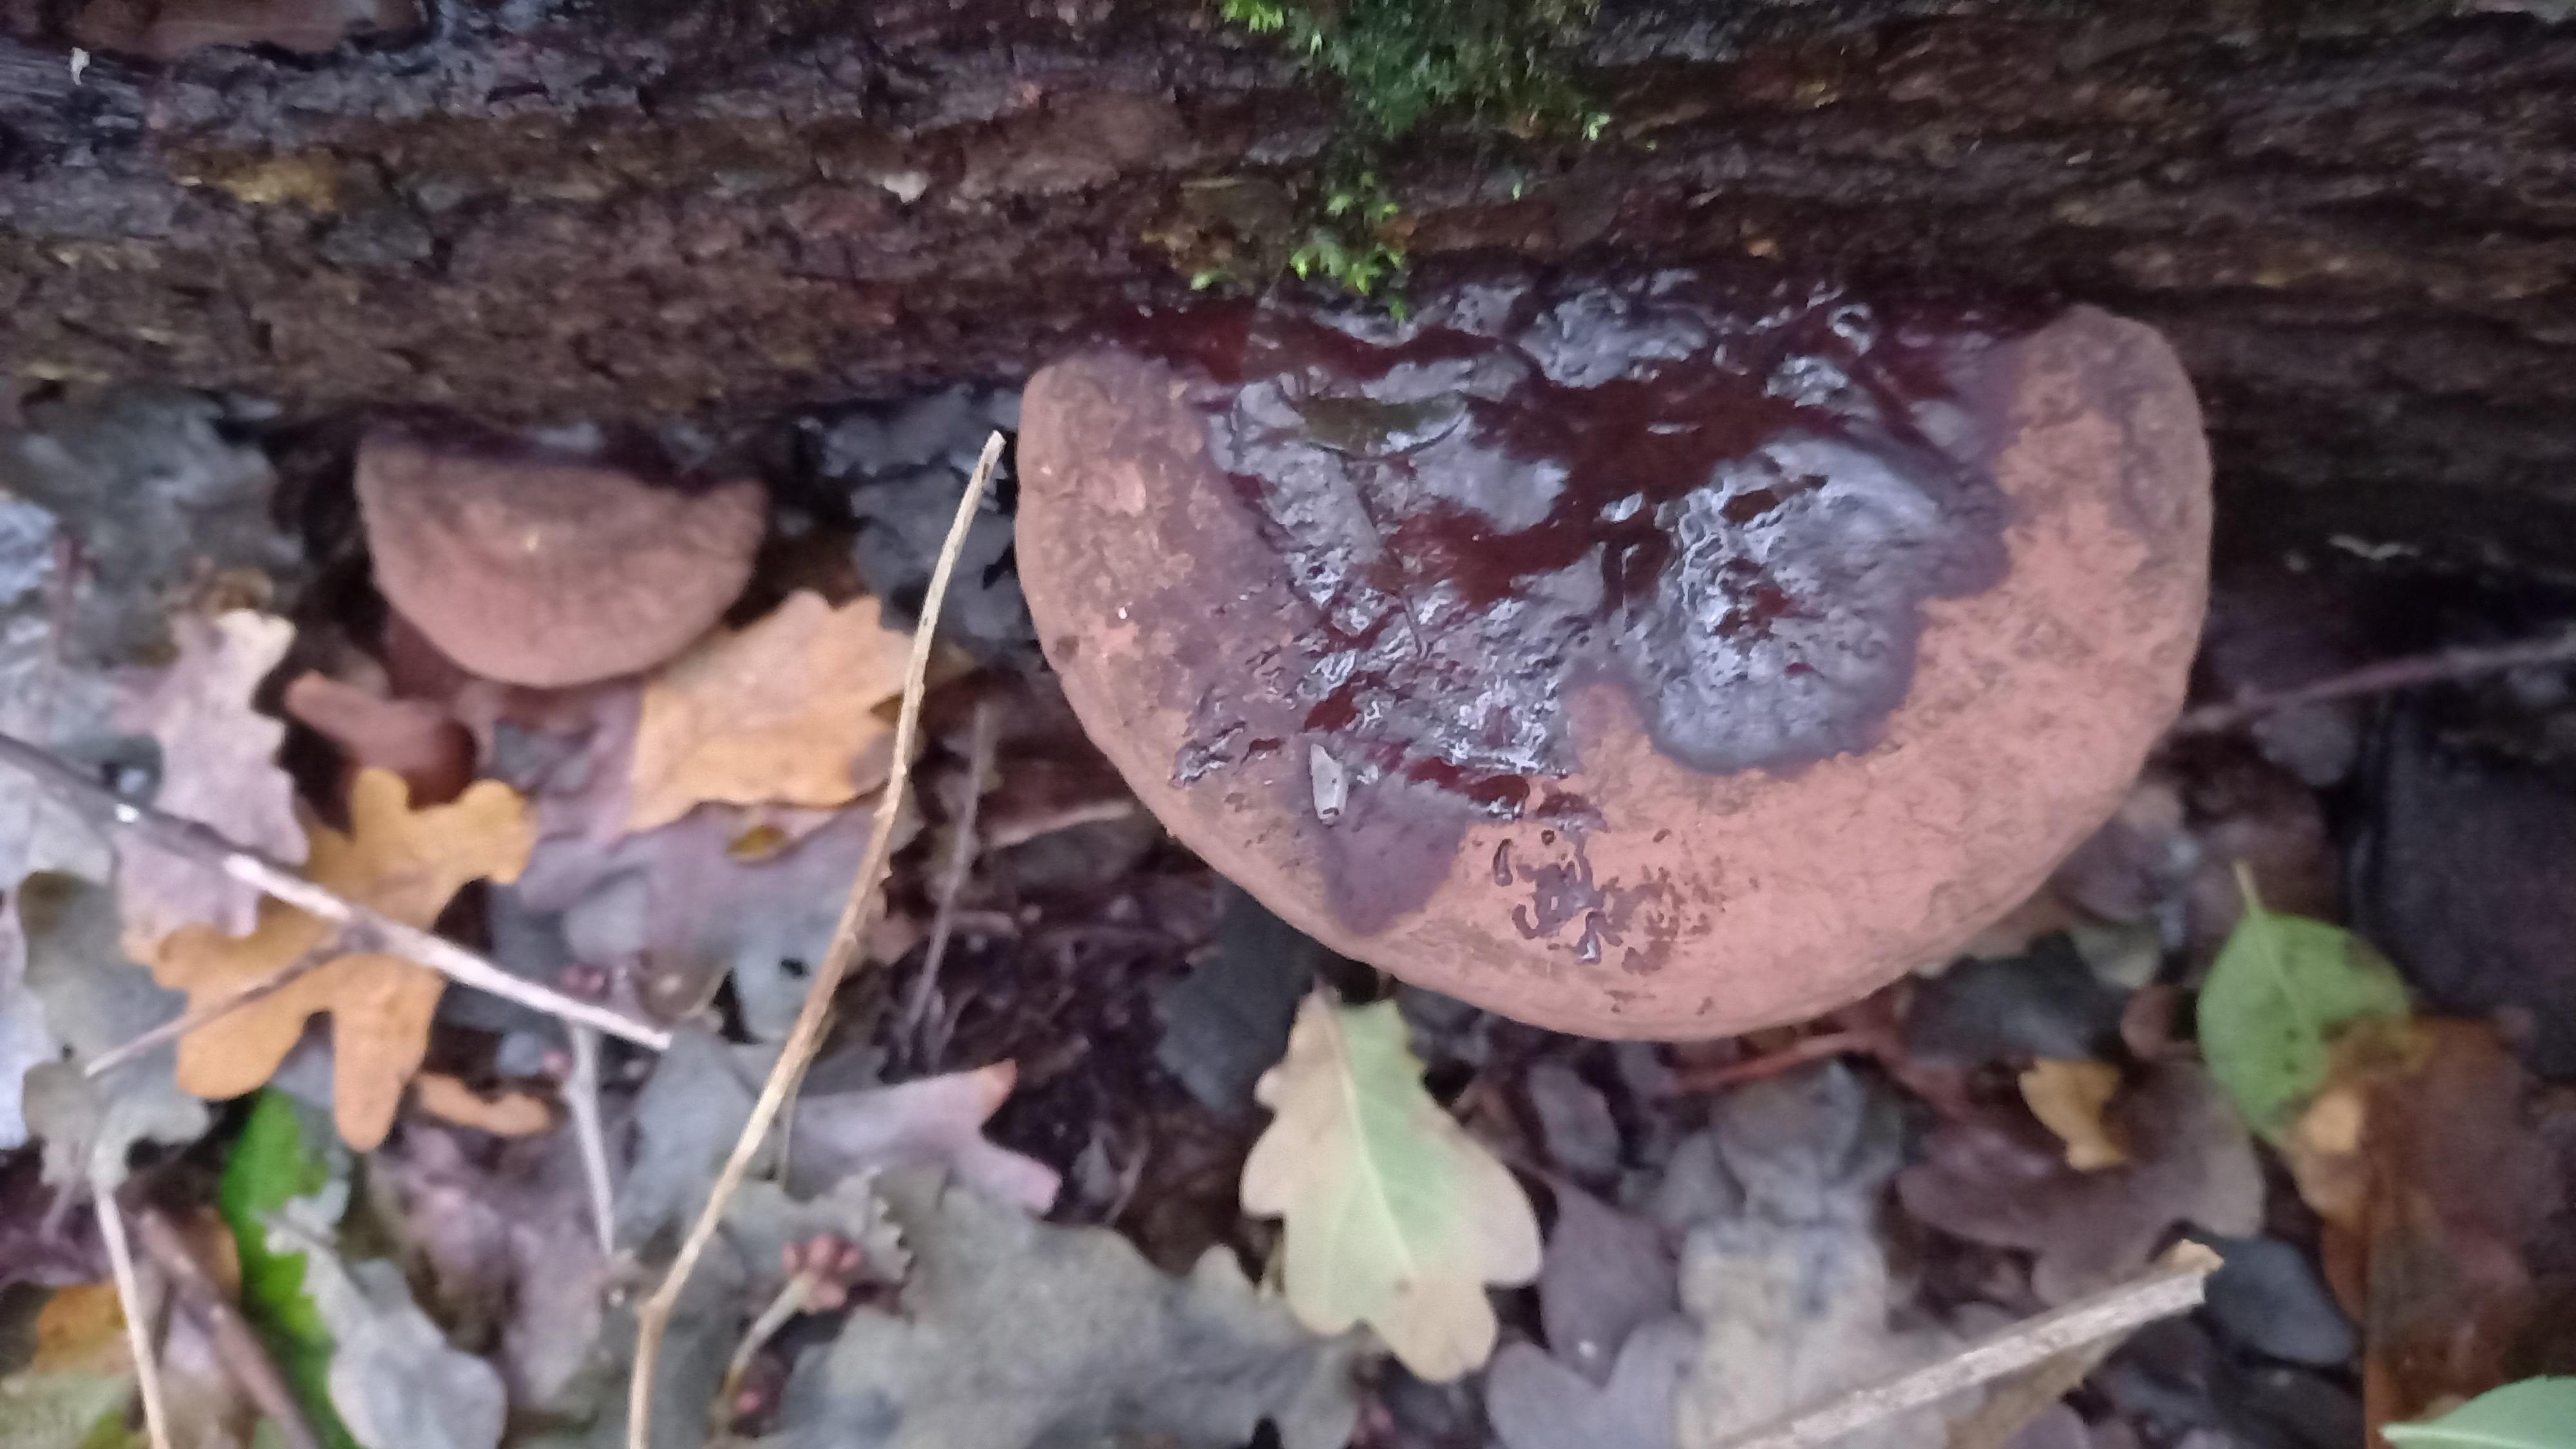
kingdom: Fungi
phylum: Basidiomycota
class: Agaricomycetes
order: Polyporales
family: Polyporaceae
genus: Ganoderma
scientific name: Ganoderma applanatum
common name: flad lakporesvamp
